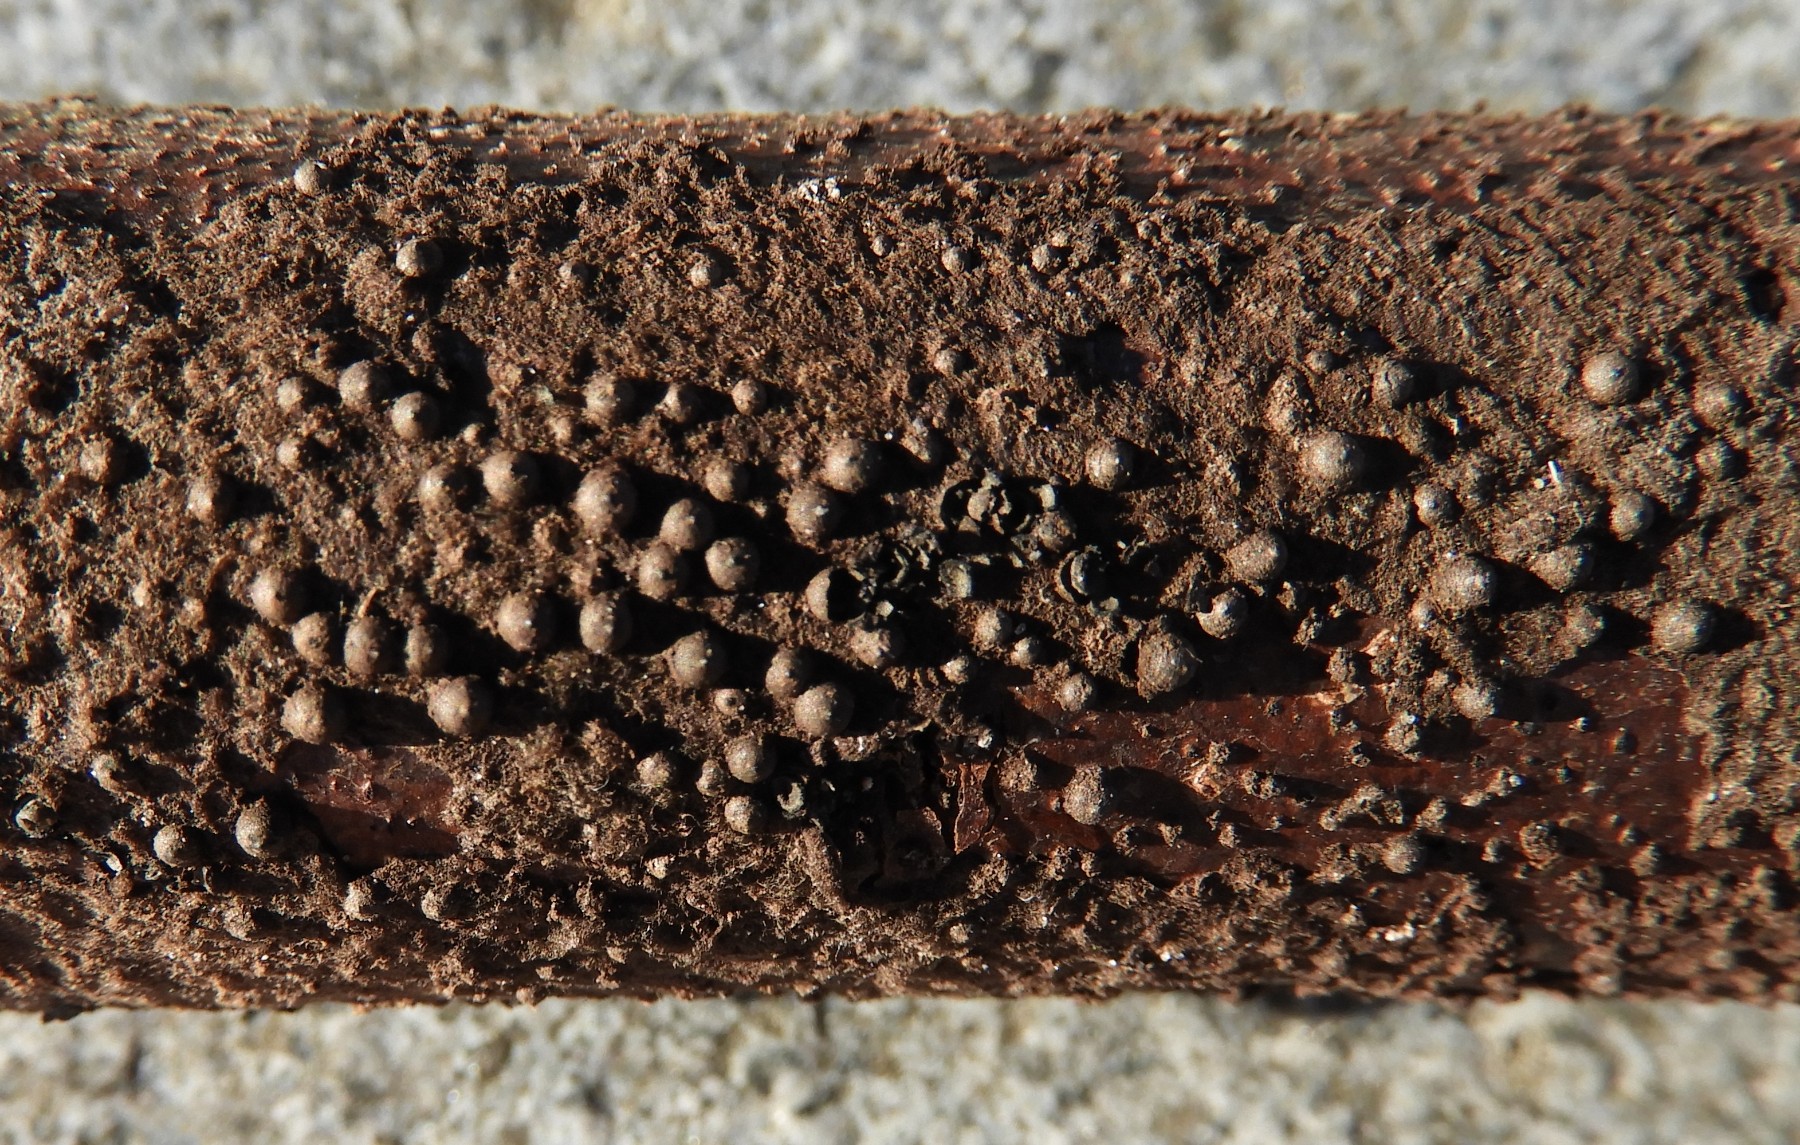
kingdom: Fungi
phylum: Ascomycota
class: Sordariomycetes
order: Xylariales
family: Xylariaceae
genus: Rosellinia
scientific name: Rosellinia
